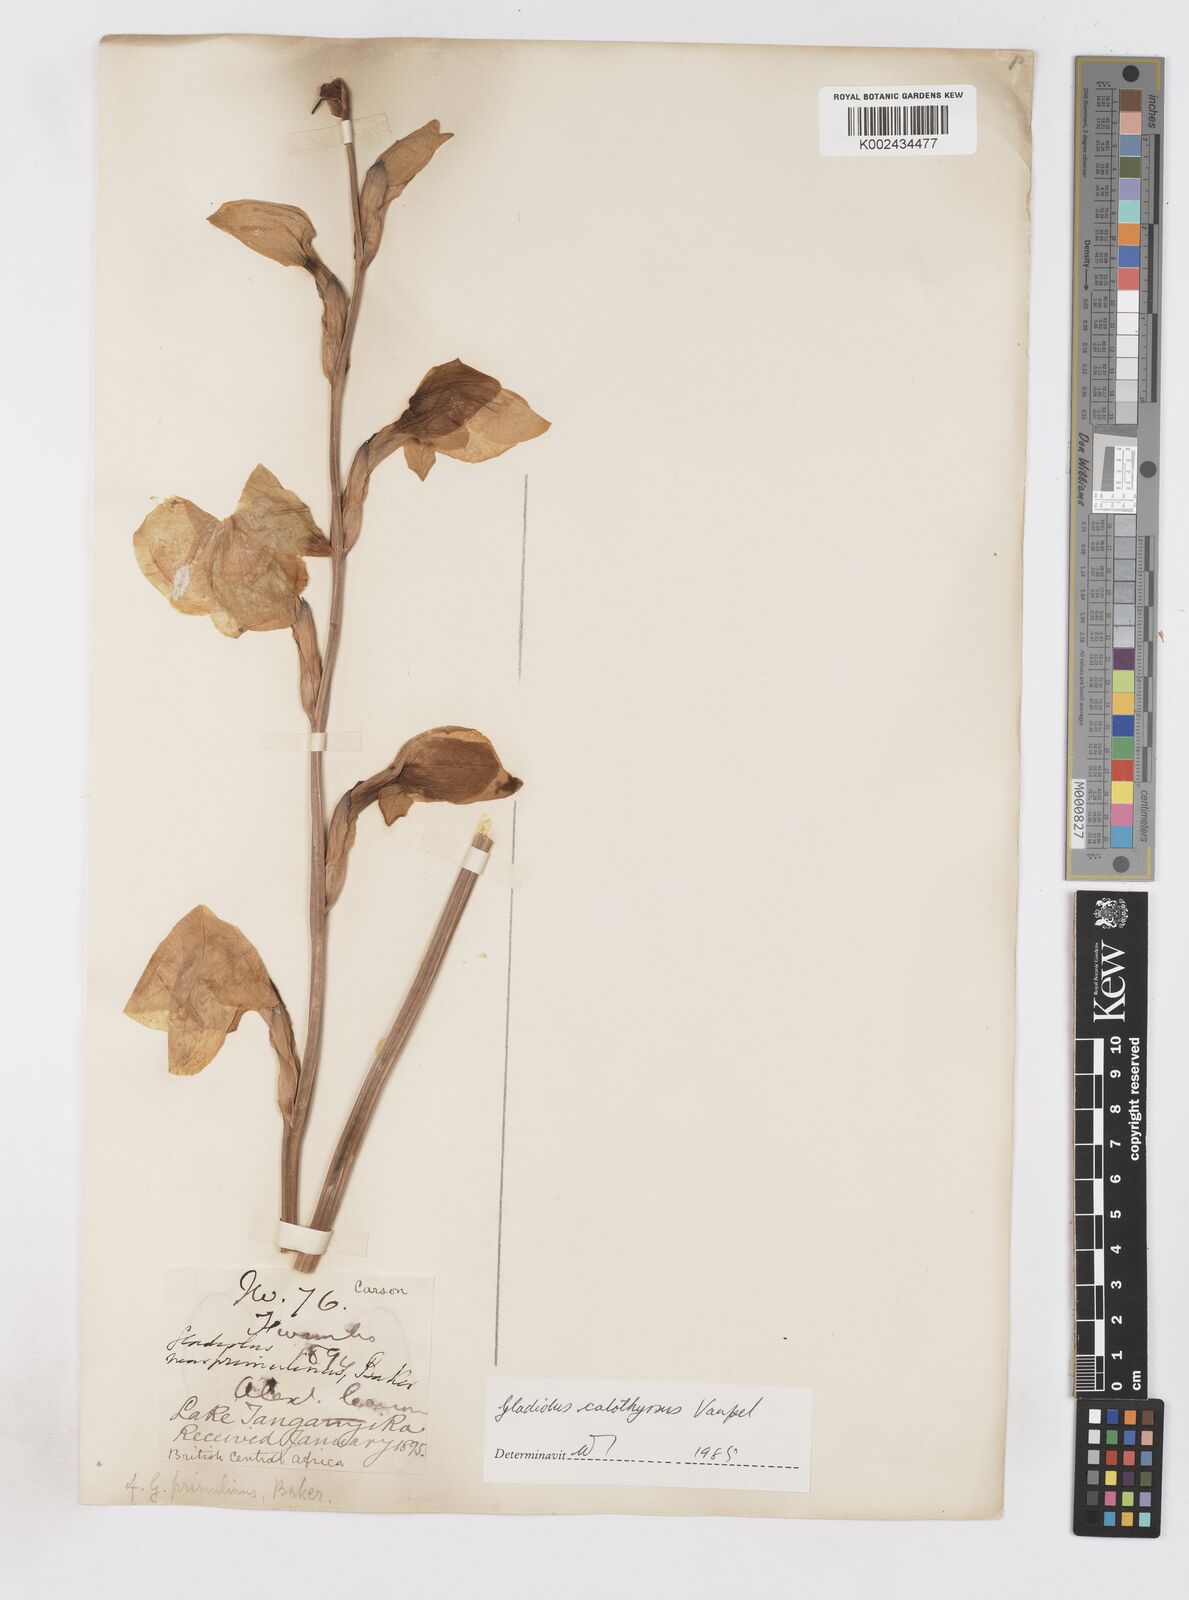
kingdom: Plantae
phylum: Tracheophyta
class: Liliopsida
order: Asparagales
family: Iridaceae
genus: Gladiolus
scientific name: Gladiolus dalenii
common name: Cornflag
